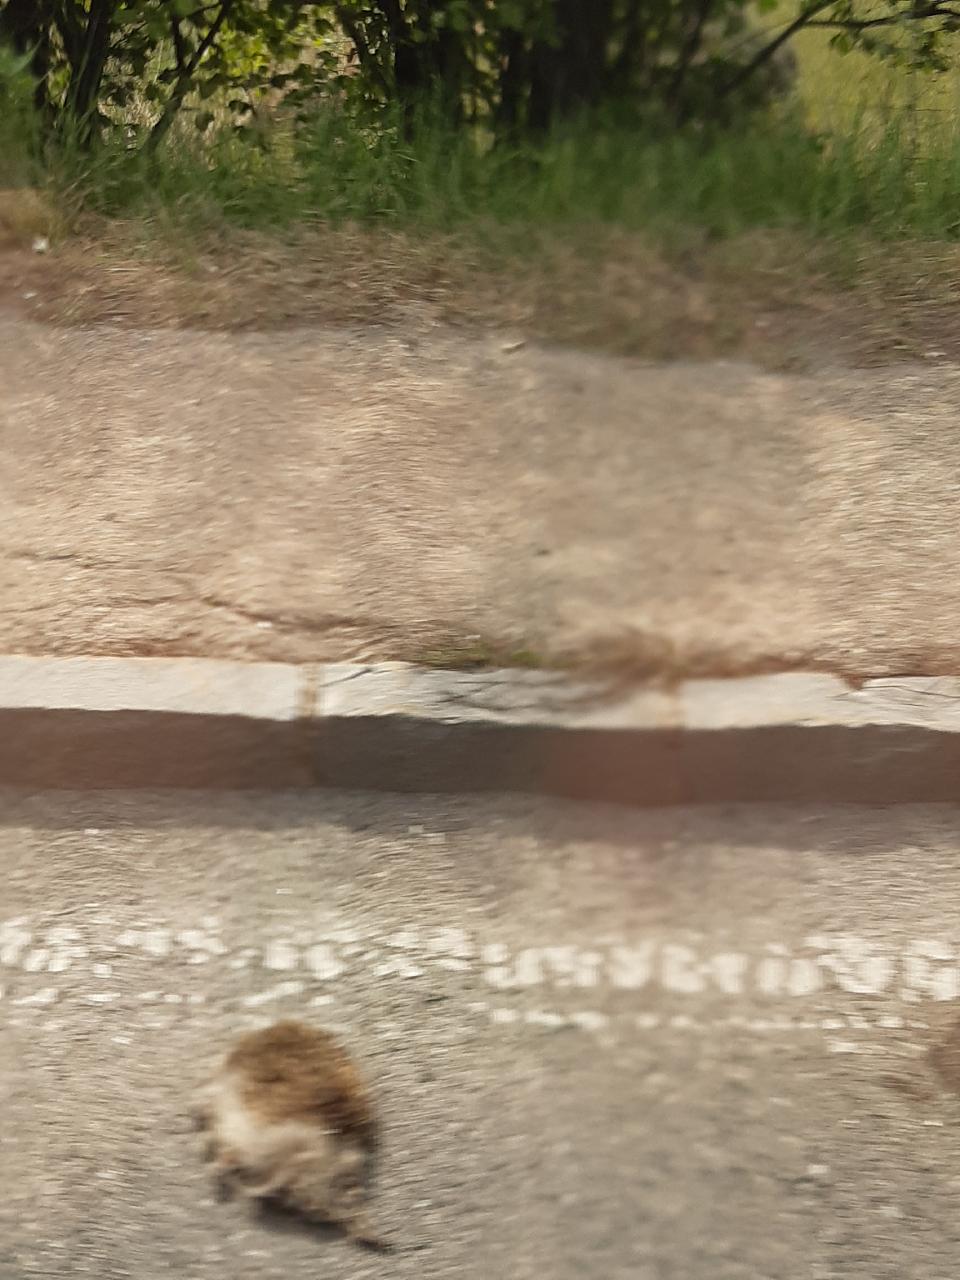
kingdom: Animalia
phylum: Chordata
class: Mammalia
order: Erinaceomorpha
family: Erinaceidae
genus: Erinaceus
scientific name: Erinaceus
